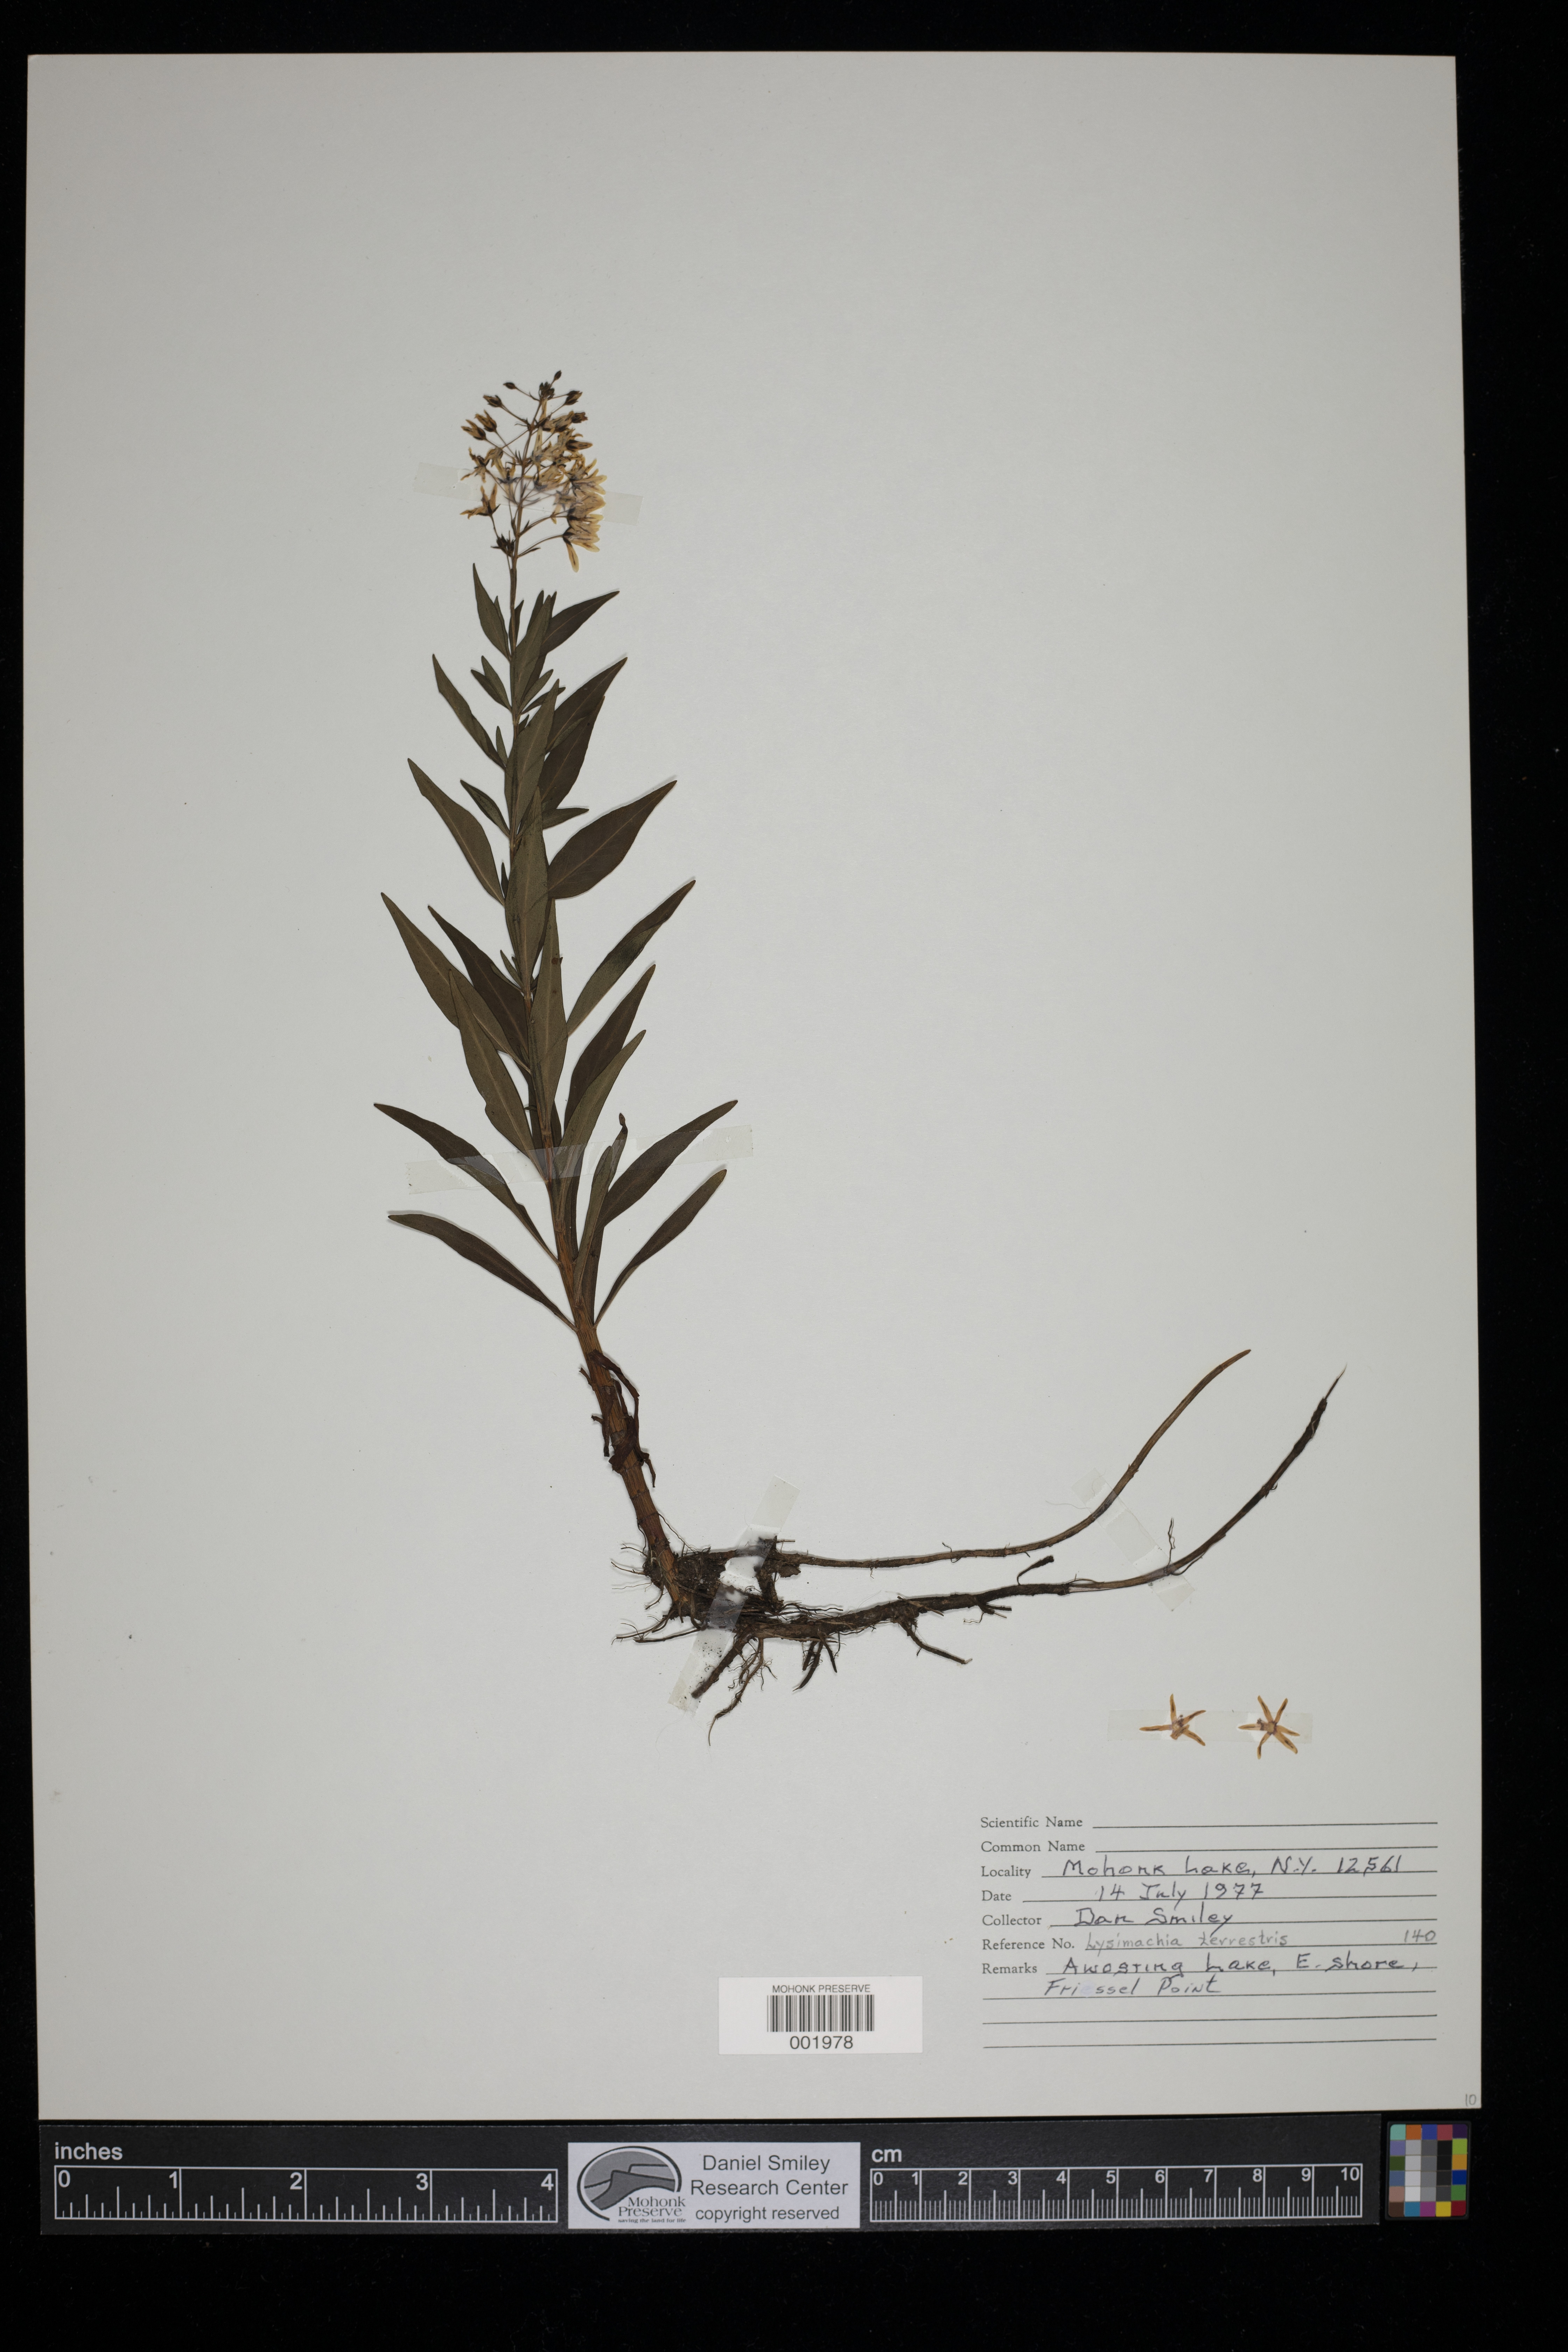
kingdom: Plantae
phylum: Tracheophyta
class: Magnoliopsida
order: Ericales
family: Primulaceae
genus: Lysimachia
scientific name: Lysimachia terrestris
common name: Lake loosestrife
